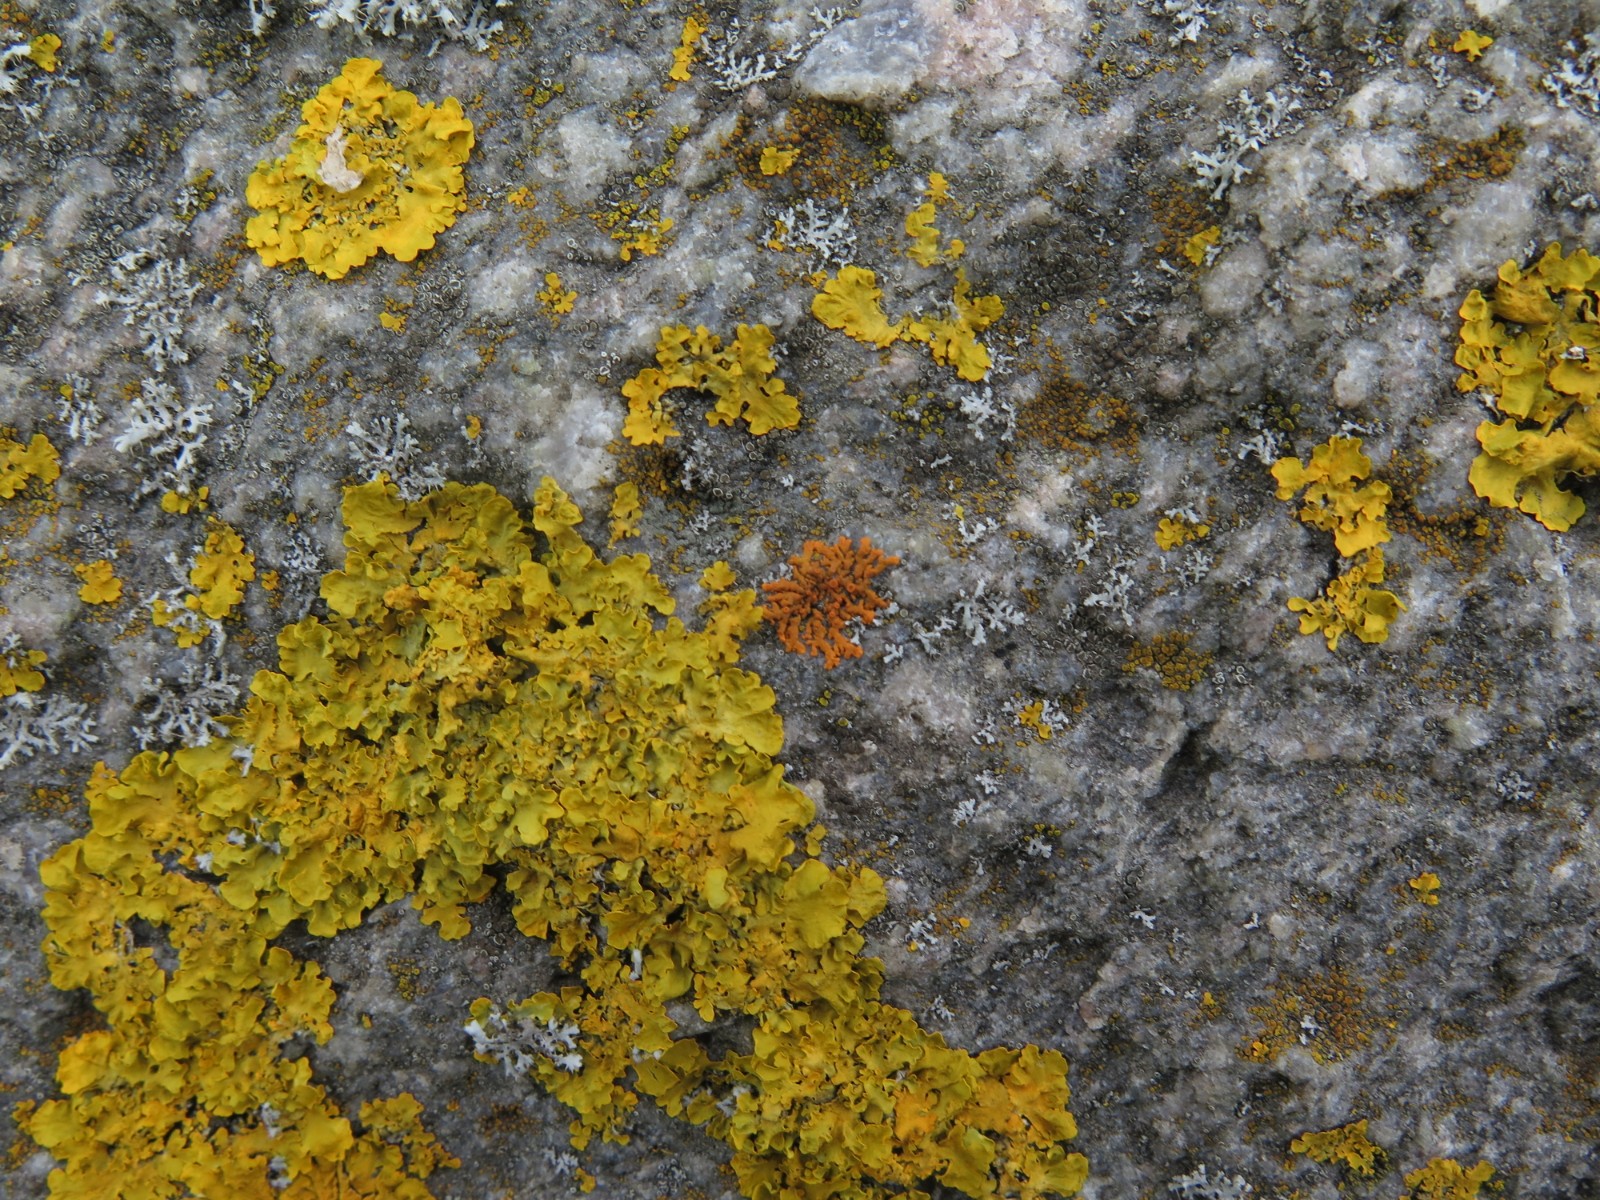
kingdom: Fungi
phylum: Ascomycota
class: Lecanoromycetes
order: Teloschistales
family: Teloschistaceae
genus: Xanthoria
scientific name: Xanthoria elegans
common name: fjeld-væggelav
